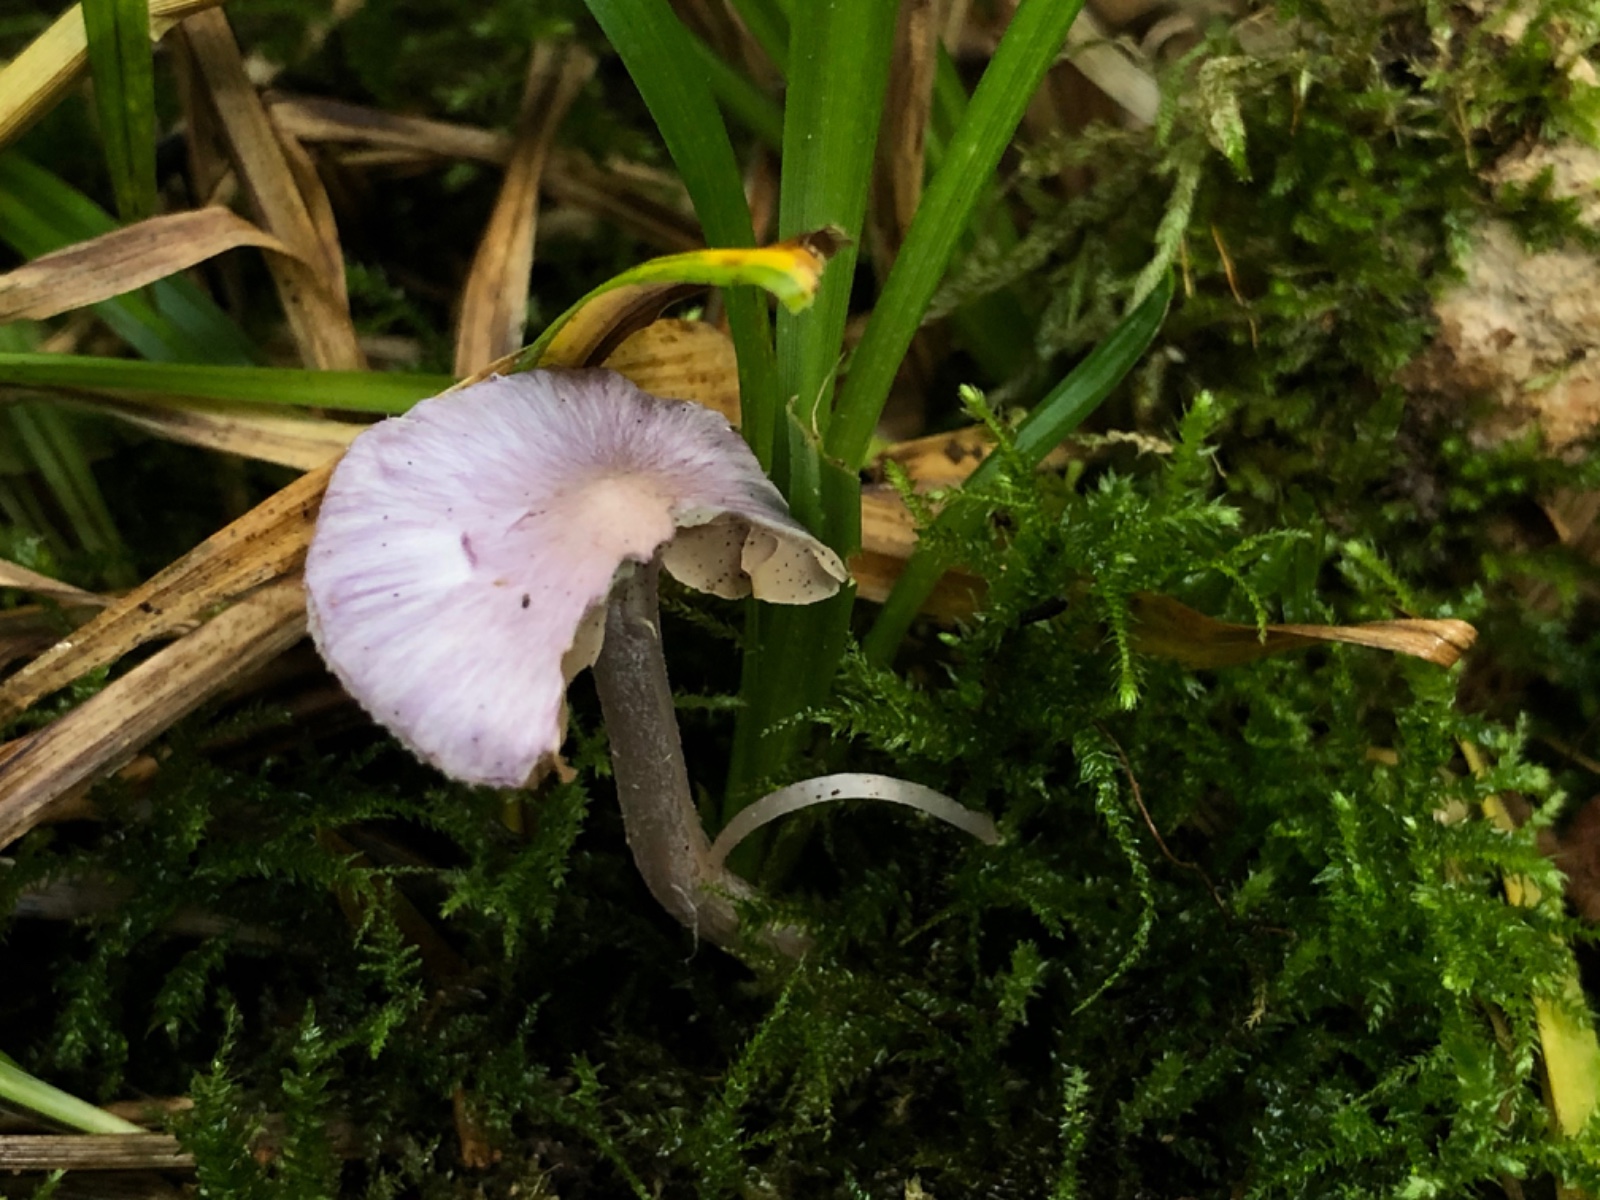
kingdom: Fungi
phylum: Basidiomycota
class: Agaricomycetes
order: Agaricales
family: Inocybaceae
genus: Inocybe
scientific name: Inocybe geophylla
